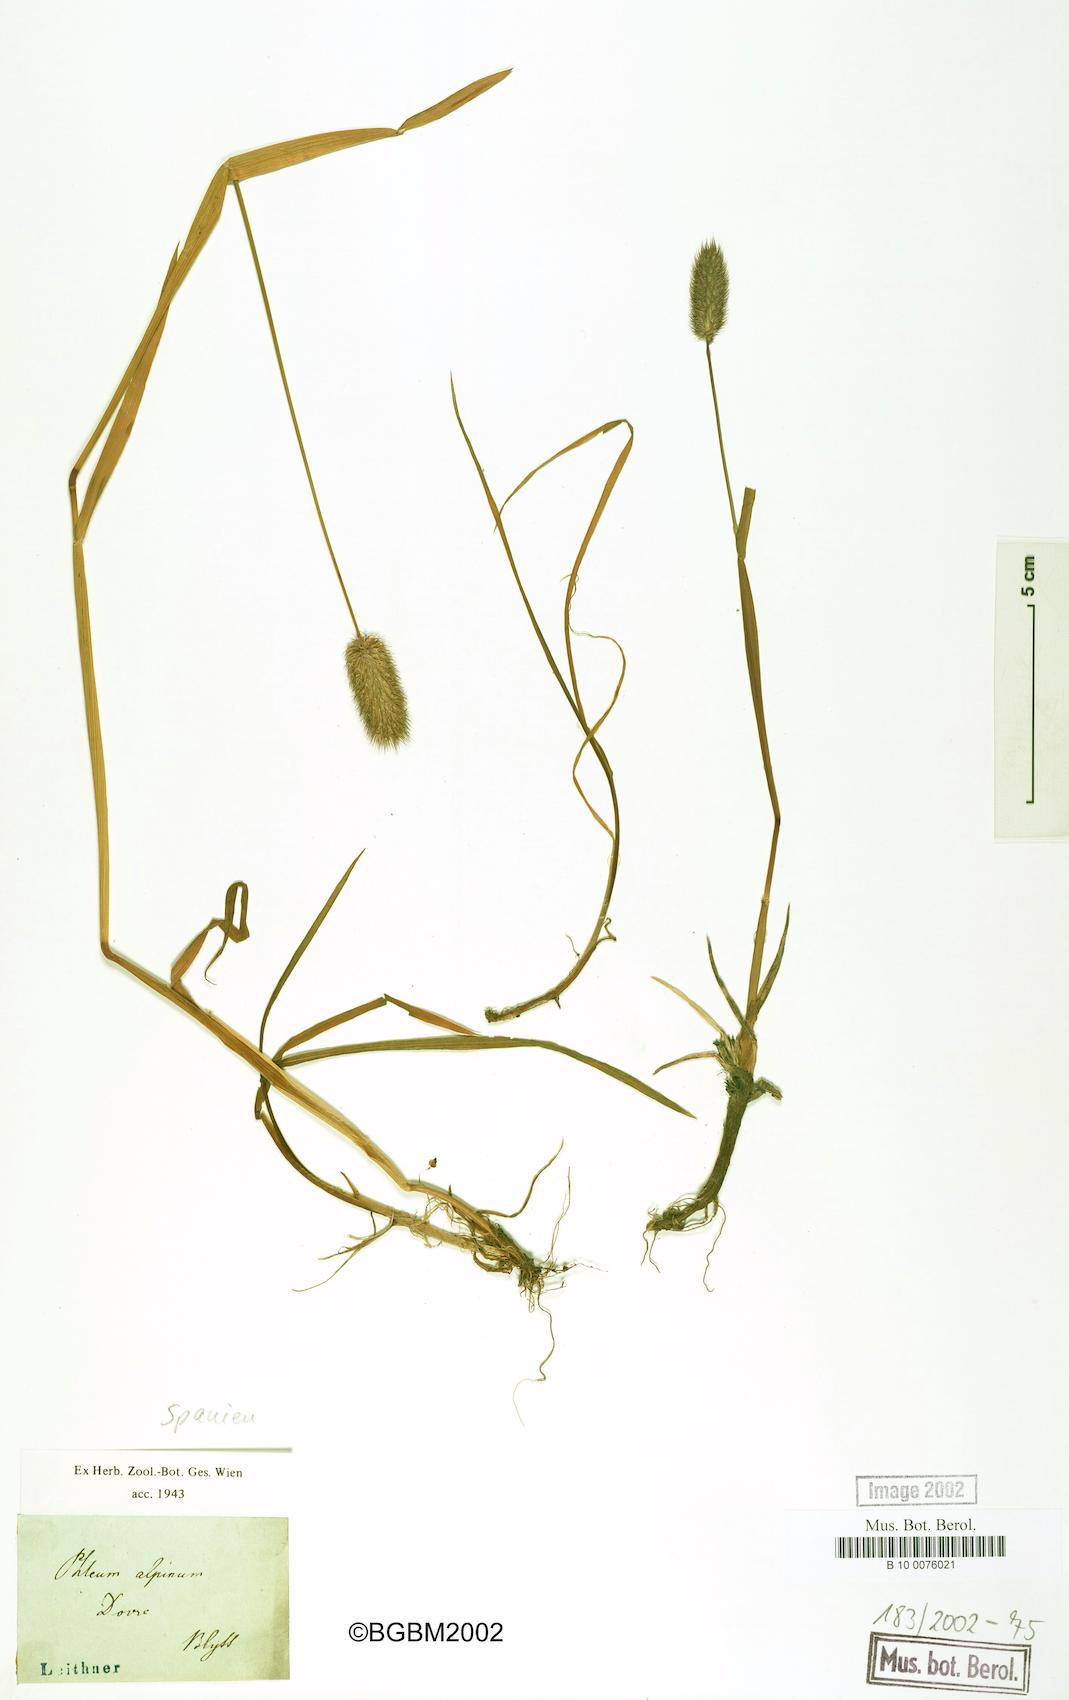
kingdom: Plantae
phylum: Tracheophyta
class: Liliopsida
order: Poales
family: Poaceae
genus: Phleum
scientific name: Phleum alpinum
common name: Alpine cat's-tail
